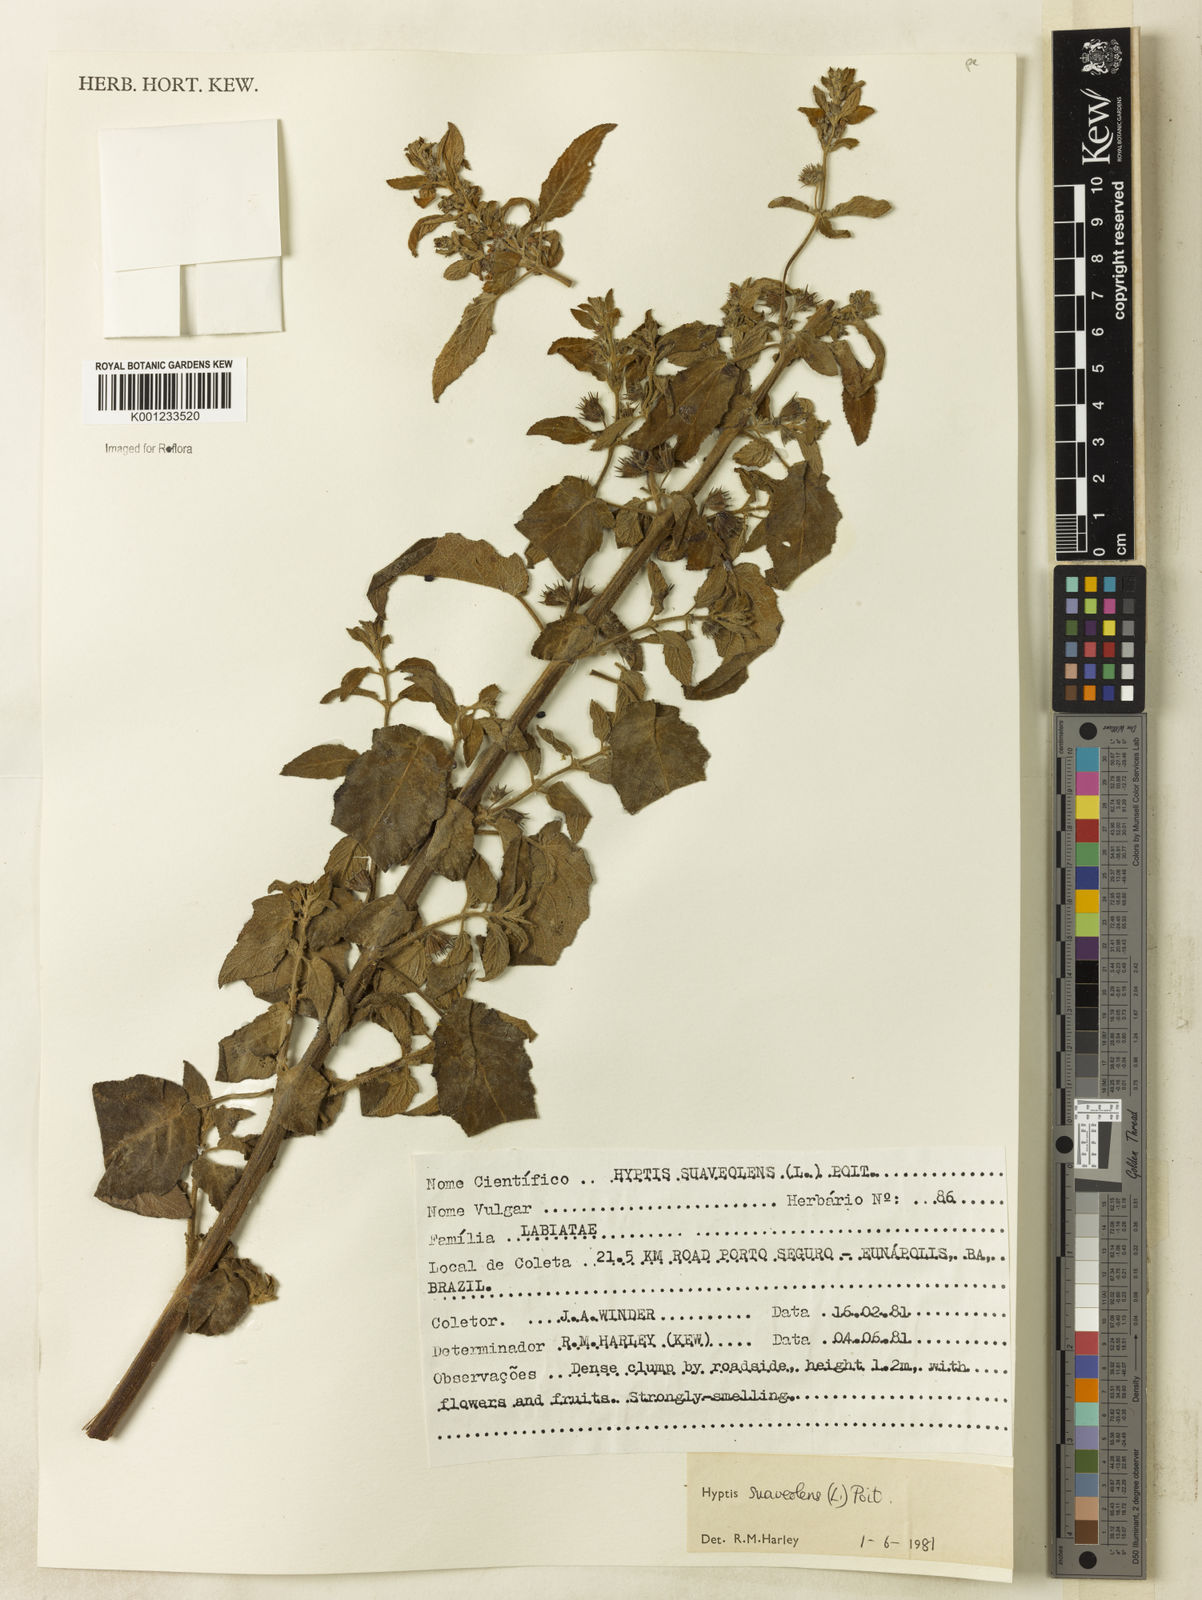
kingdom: Plantae
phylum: Tracheophyta
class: Magnoliopsida
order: Lamiales
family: Lamiaceae
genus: Mesosphaerum
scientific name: Mesosphaerum suaveolens
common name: Pignut
